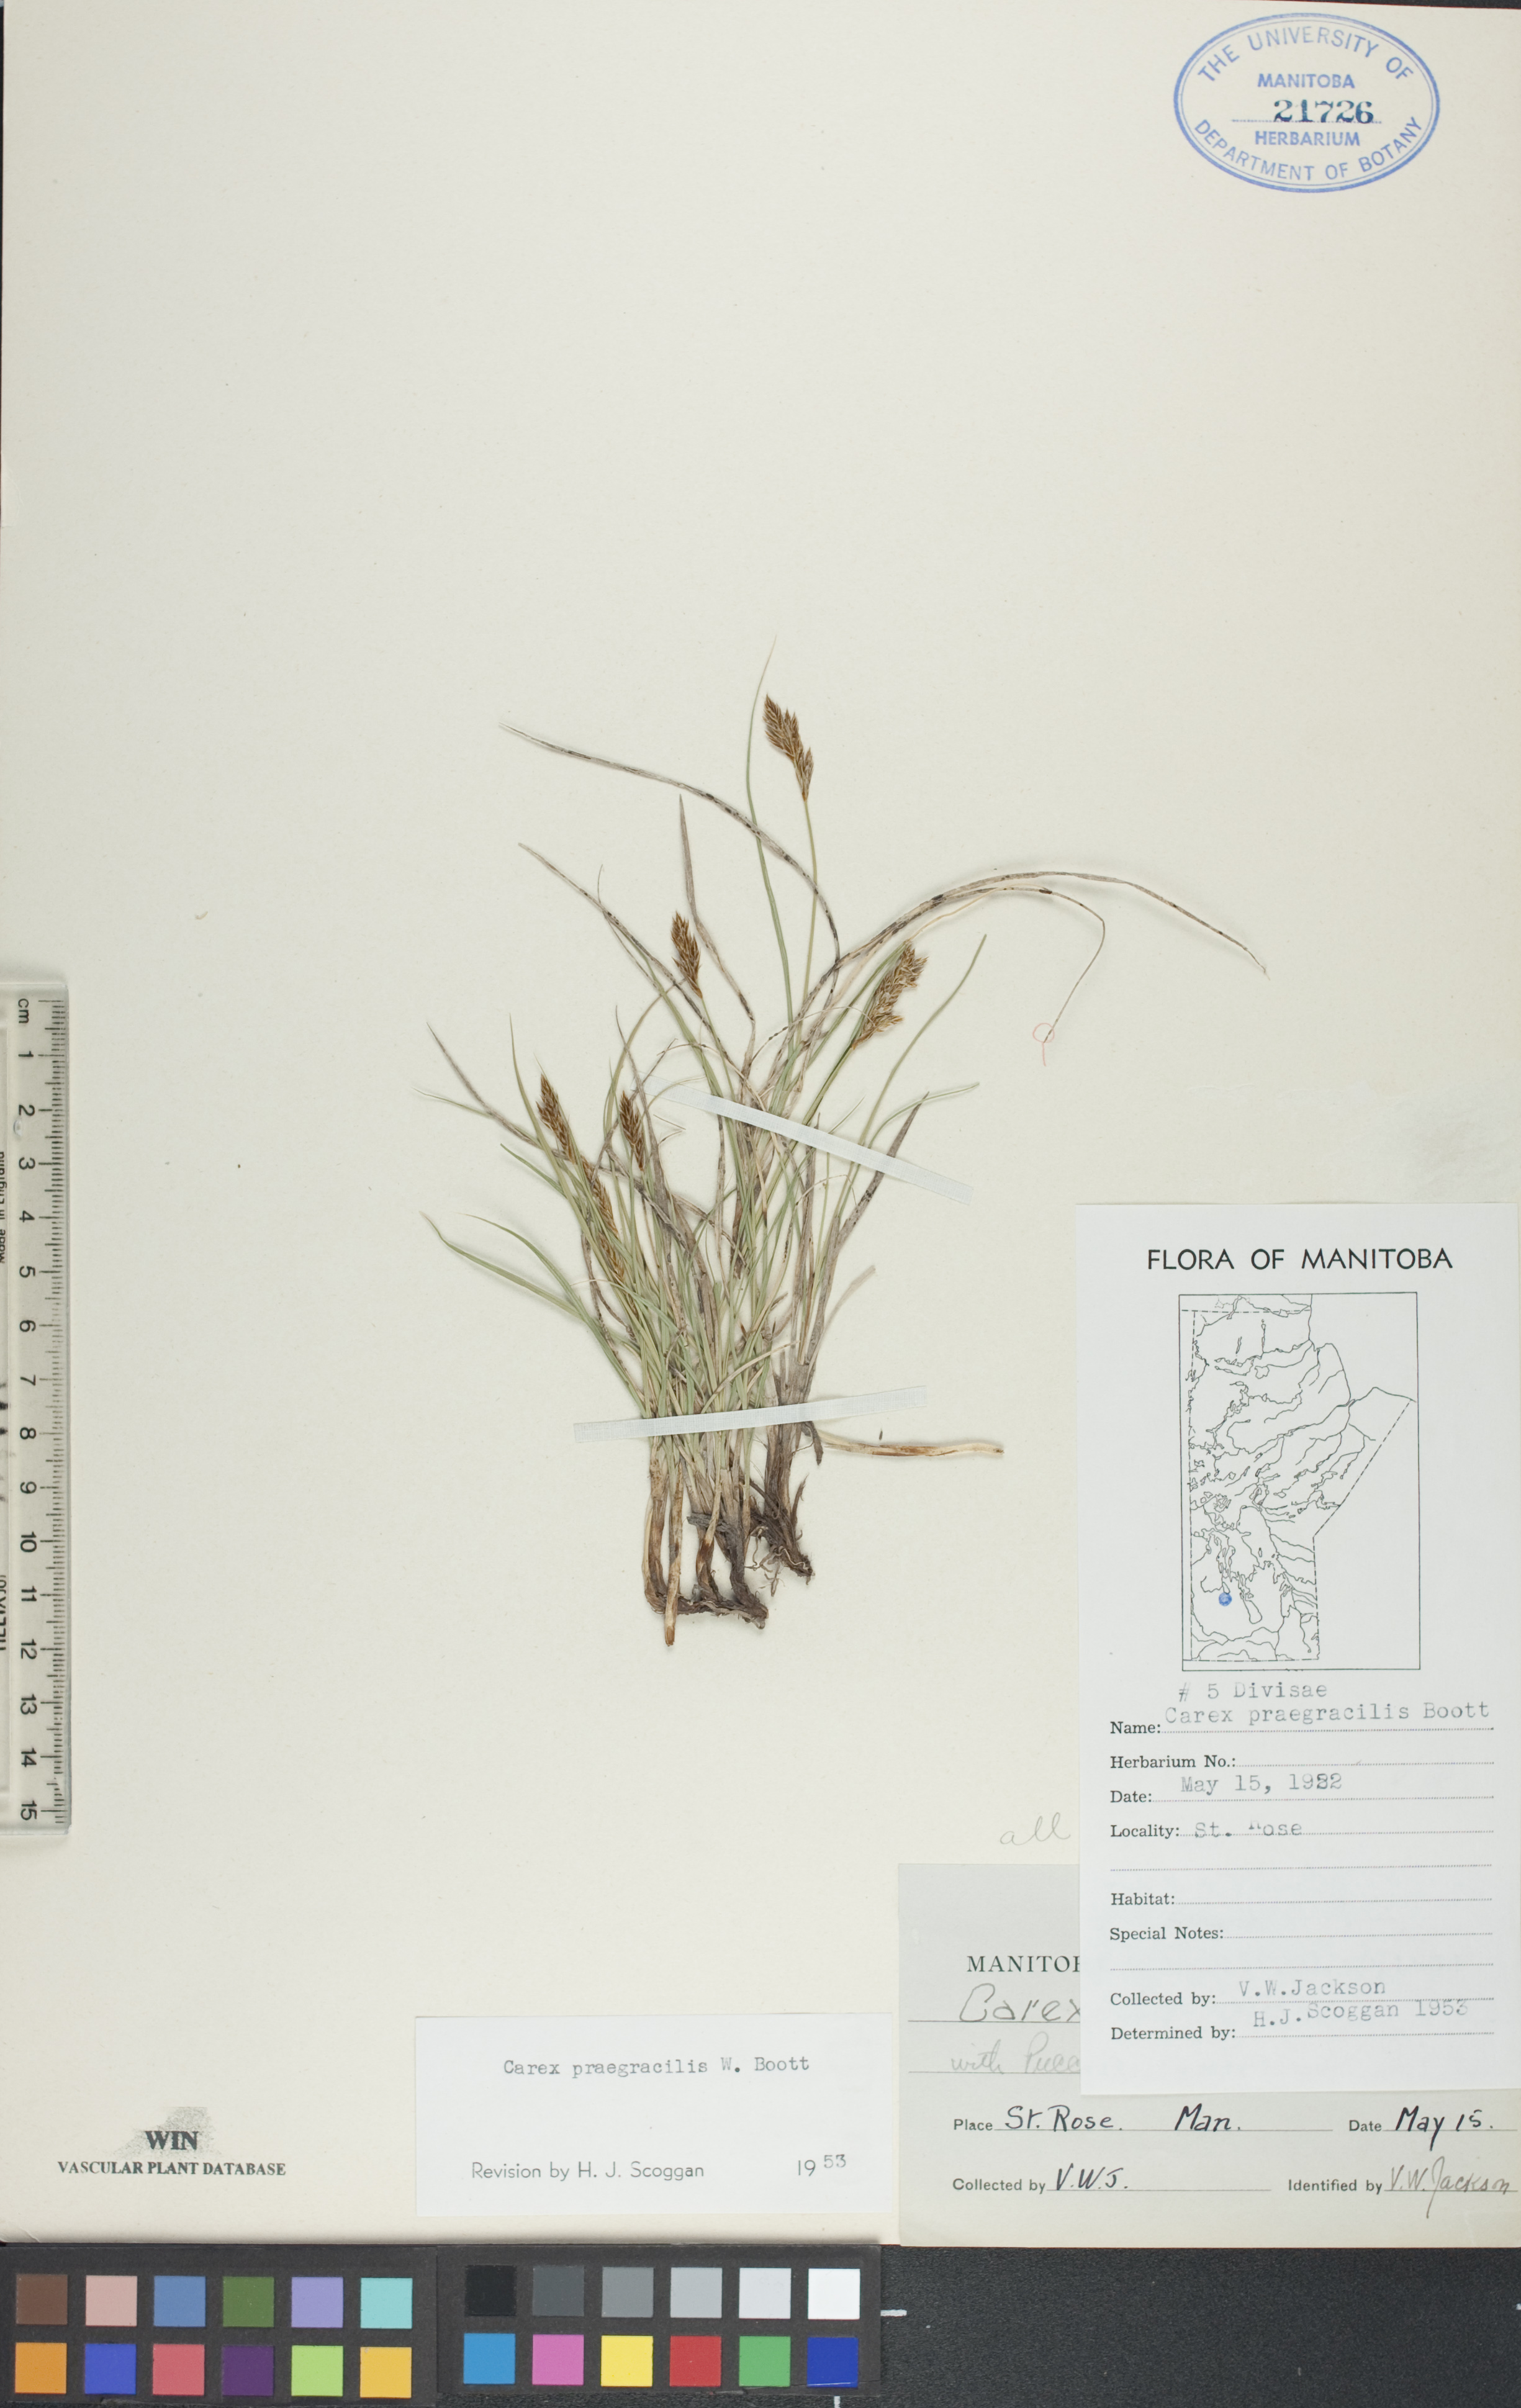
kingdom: Plantae
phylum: Tracheophyta
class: Liliopsida
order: Poales
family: Cyperaceae
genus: Carex
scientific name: Carex praegracilis
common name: Black creeper sedge
